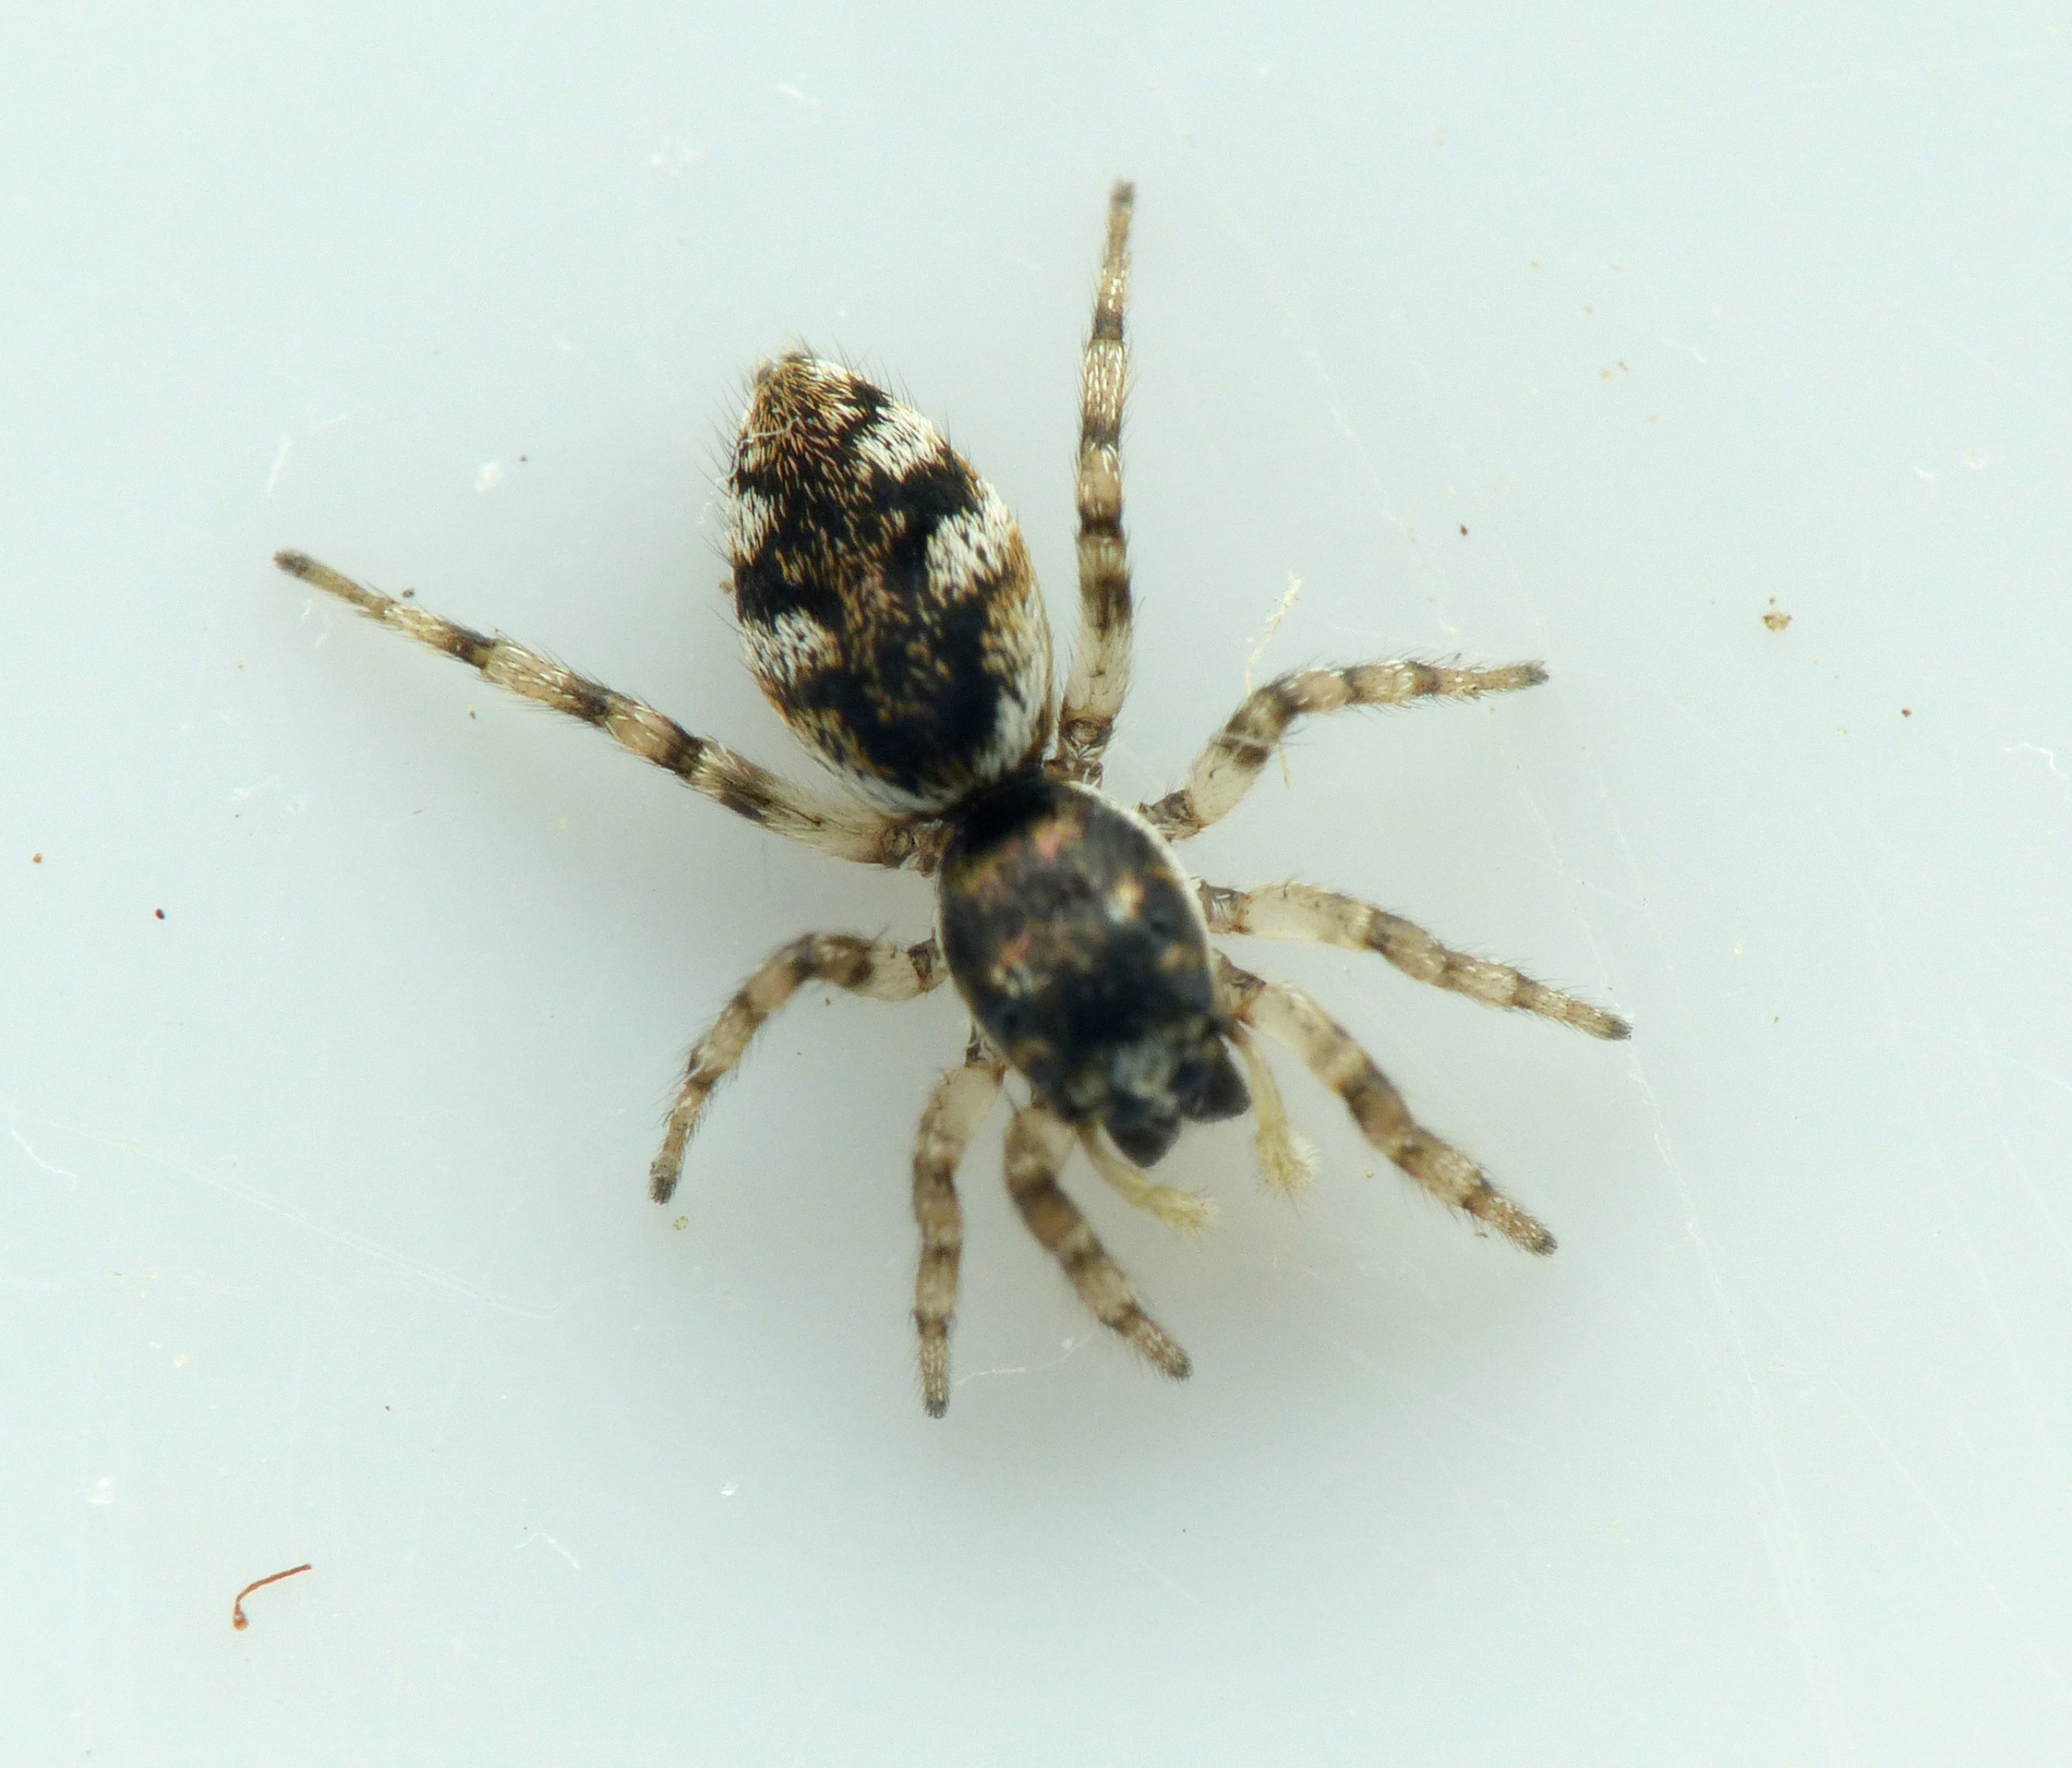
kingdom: Animalia
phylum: Arthropoda
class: Arachnida
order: Araneae
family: Salticidae
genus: Salticus
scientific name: Salticus
